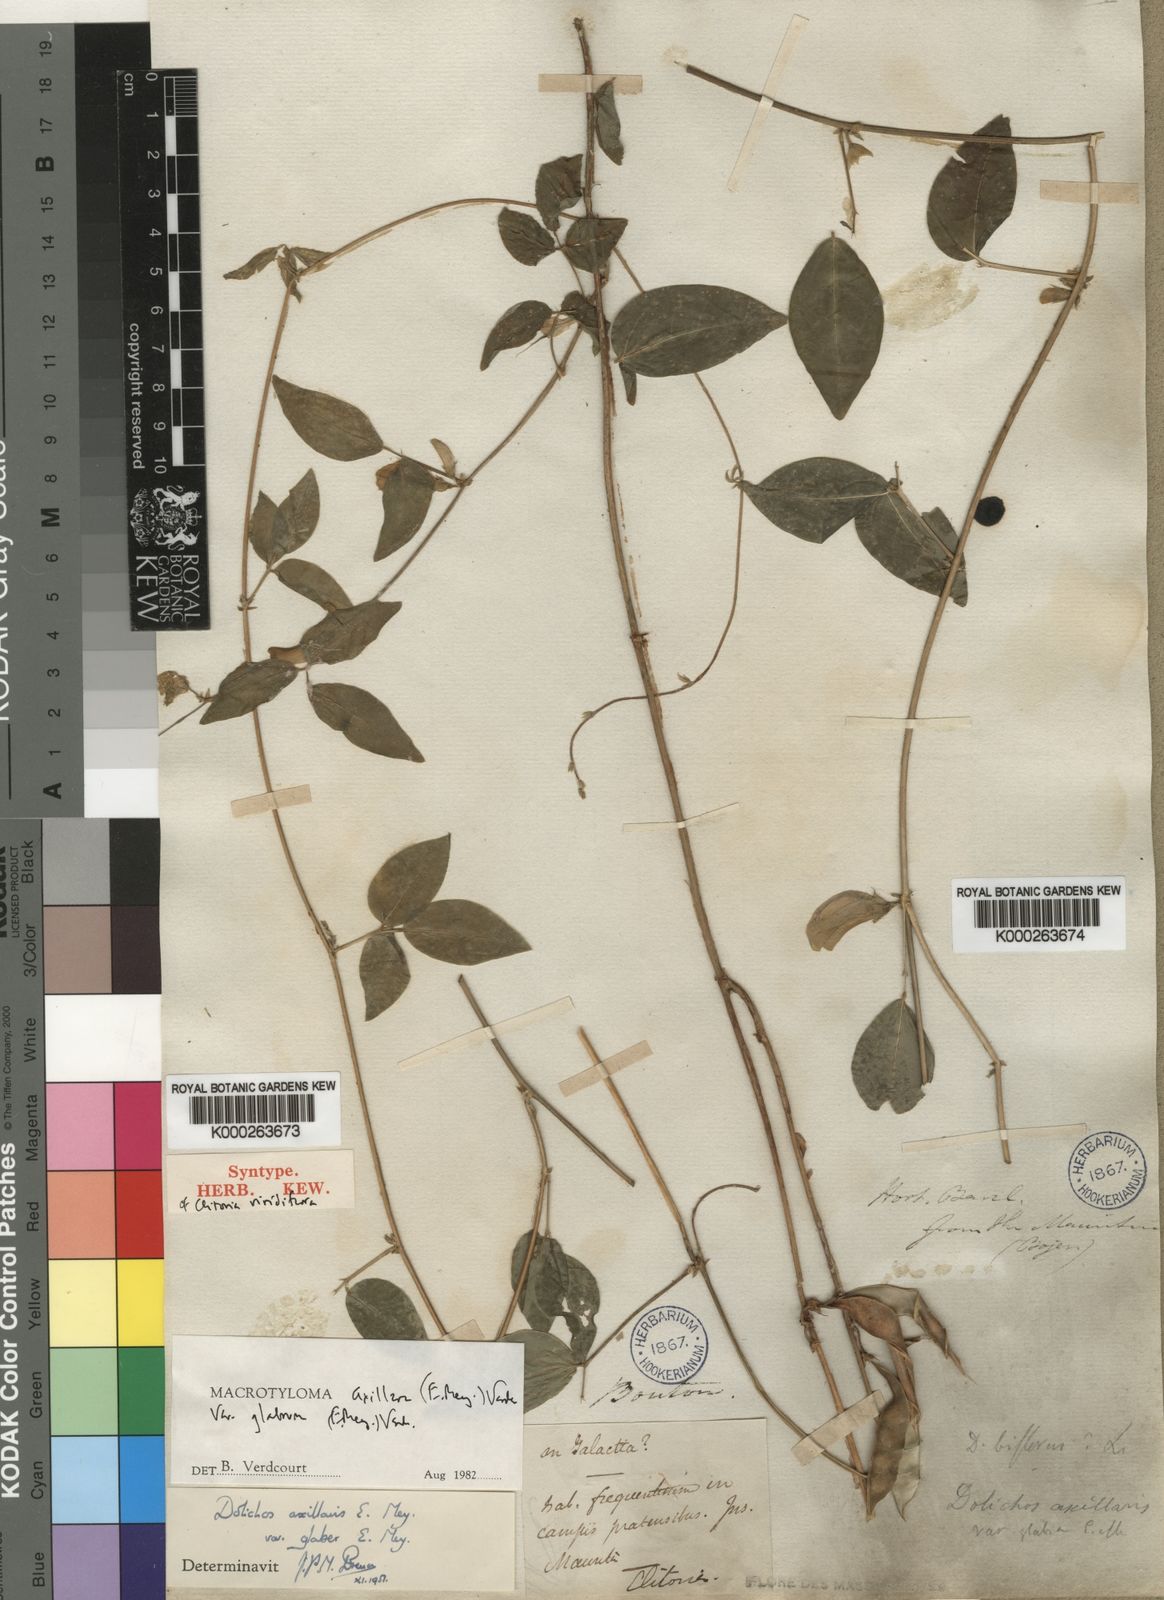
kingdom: Plantae
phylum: Tracheophyta
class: Magnoliopsida
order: Fabales
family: Fabaceae
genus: Macrotyloma
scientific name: Macrotyloma axillare
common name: Perennial horsegram
